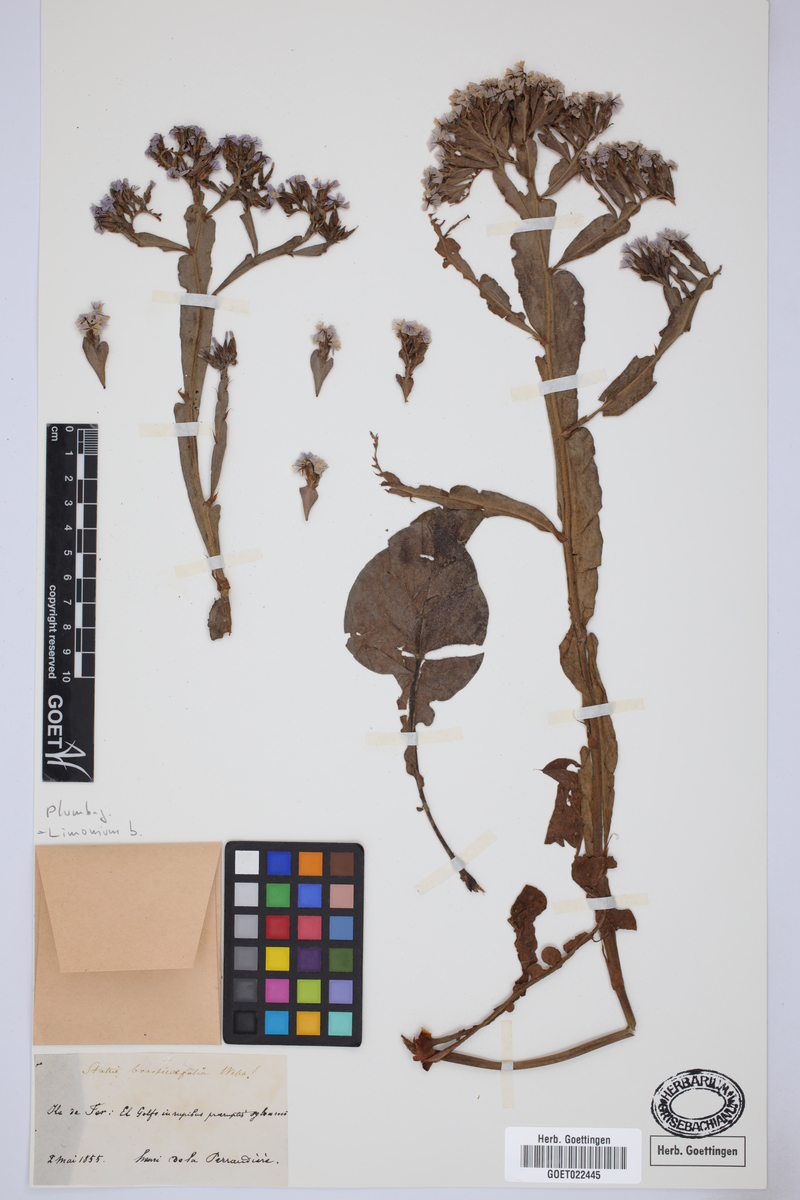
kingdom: Plantae
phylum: Tracheophyta
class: Magnoliopsida
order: Caryophyllales
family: Plumbaginaceae
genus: Limonium
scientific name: Limonium brassicifolium
